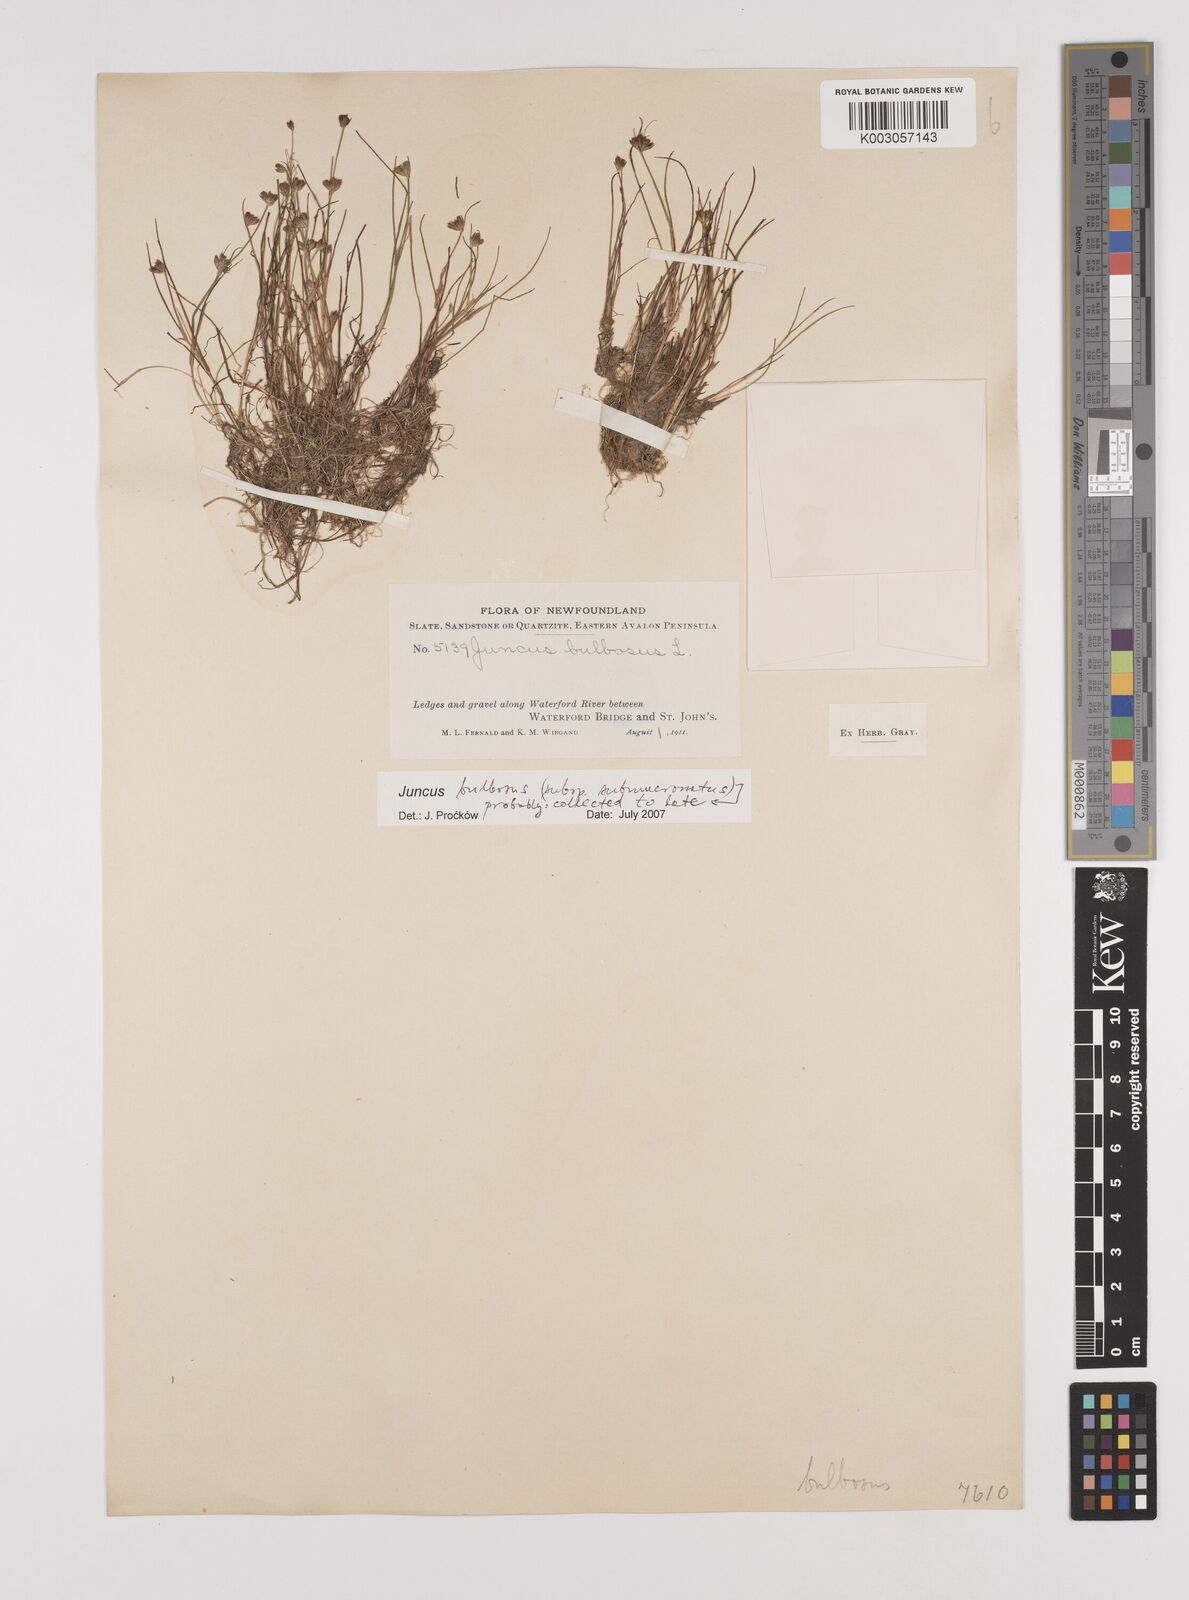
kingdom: Plantae
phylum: Tracheophyta
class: Liliopsida
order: Poales
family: Juncaceae
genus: Juncus
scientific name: Juncus bulbosus
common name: Bulbous rush
